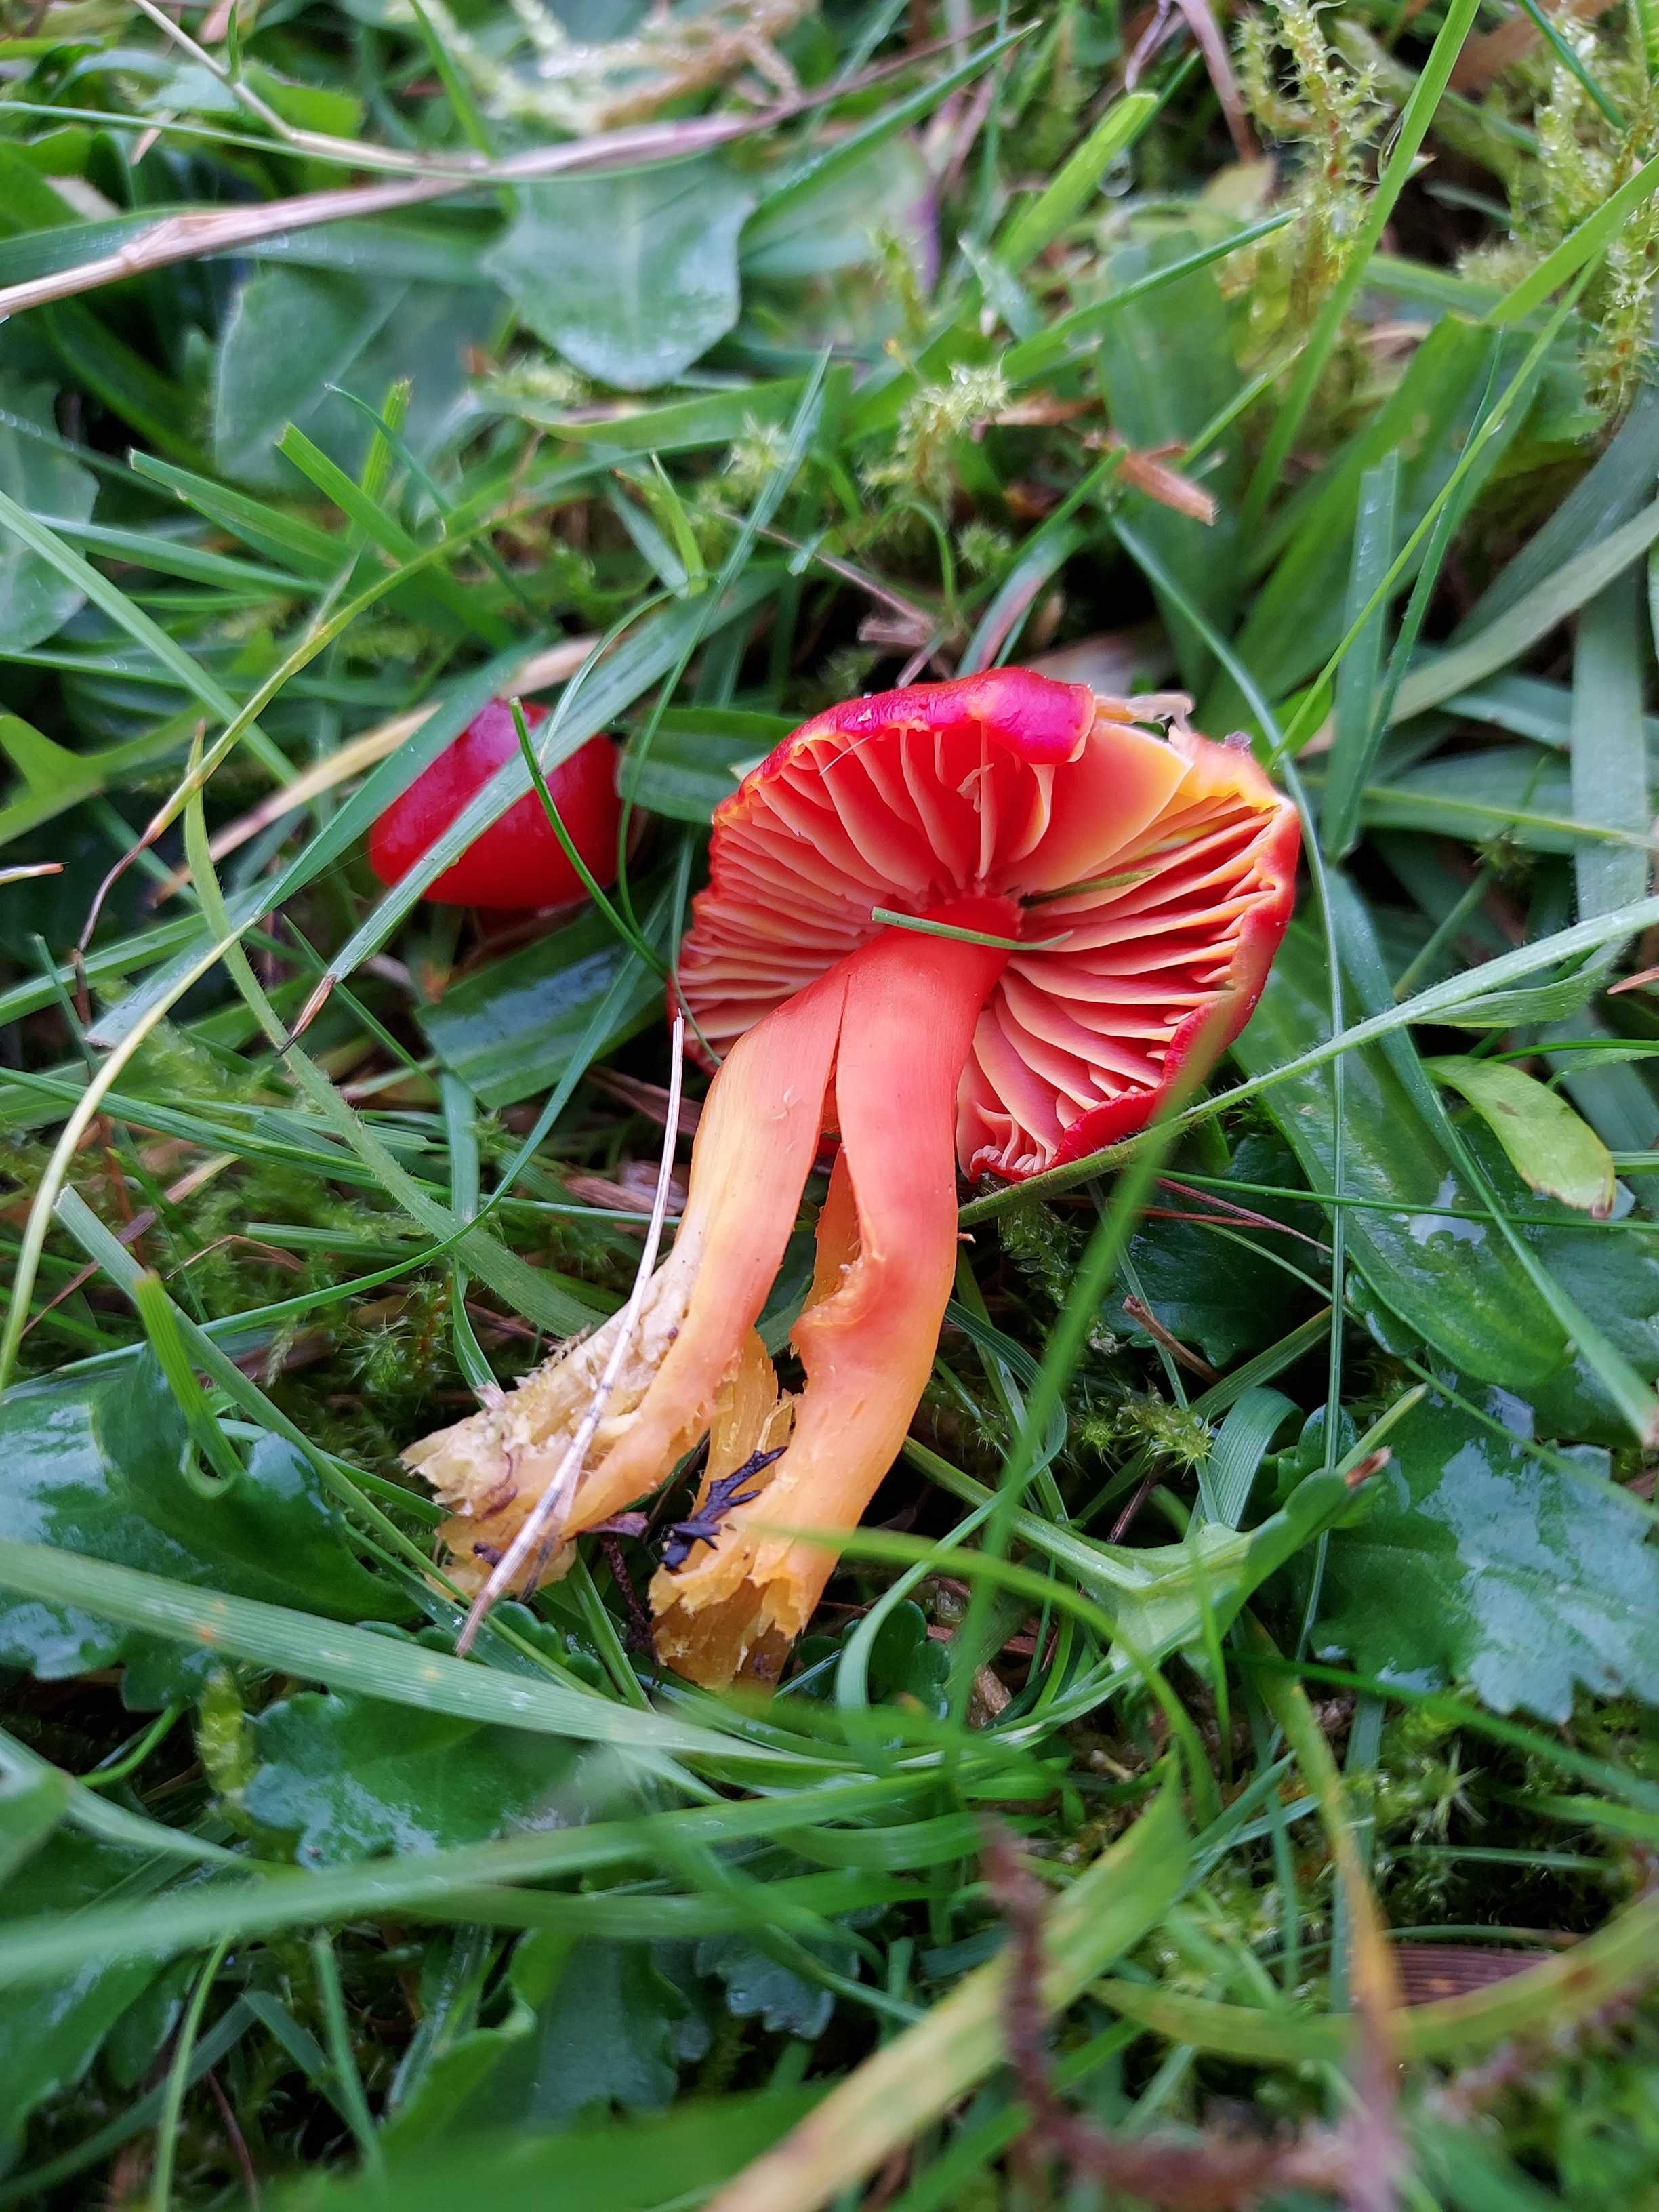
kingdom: Fungi
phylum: Basidiomycota
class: Agaricomycetes
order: Agaricales
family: Hygrophoraceae
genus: Hygrocybe
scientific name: Hygrocybe coccinea
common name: cinnober-vokshat
